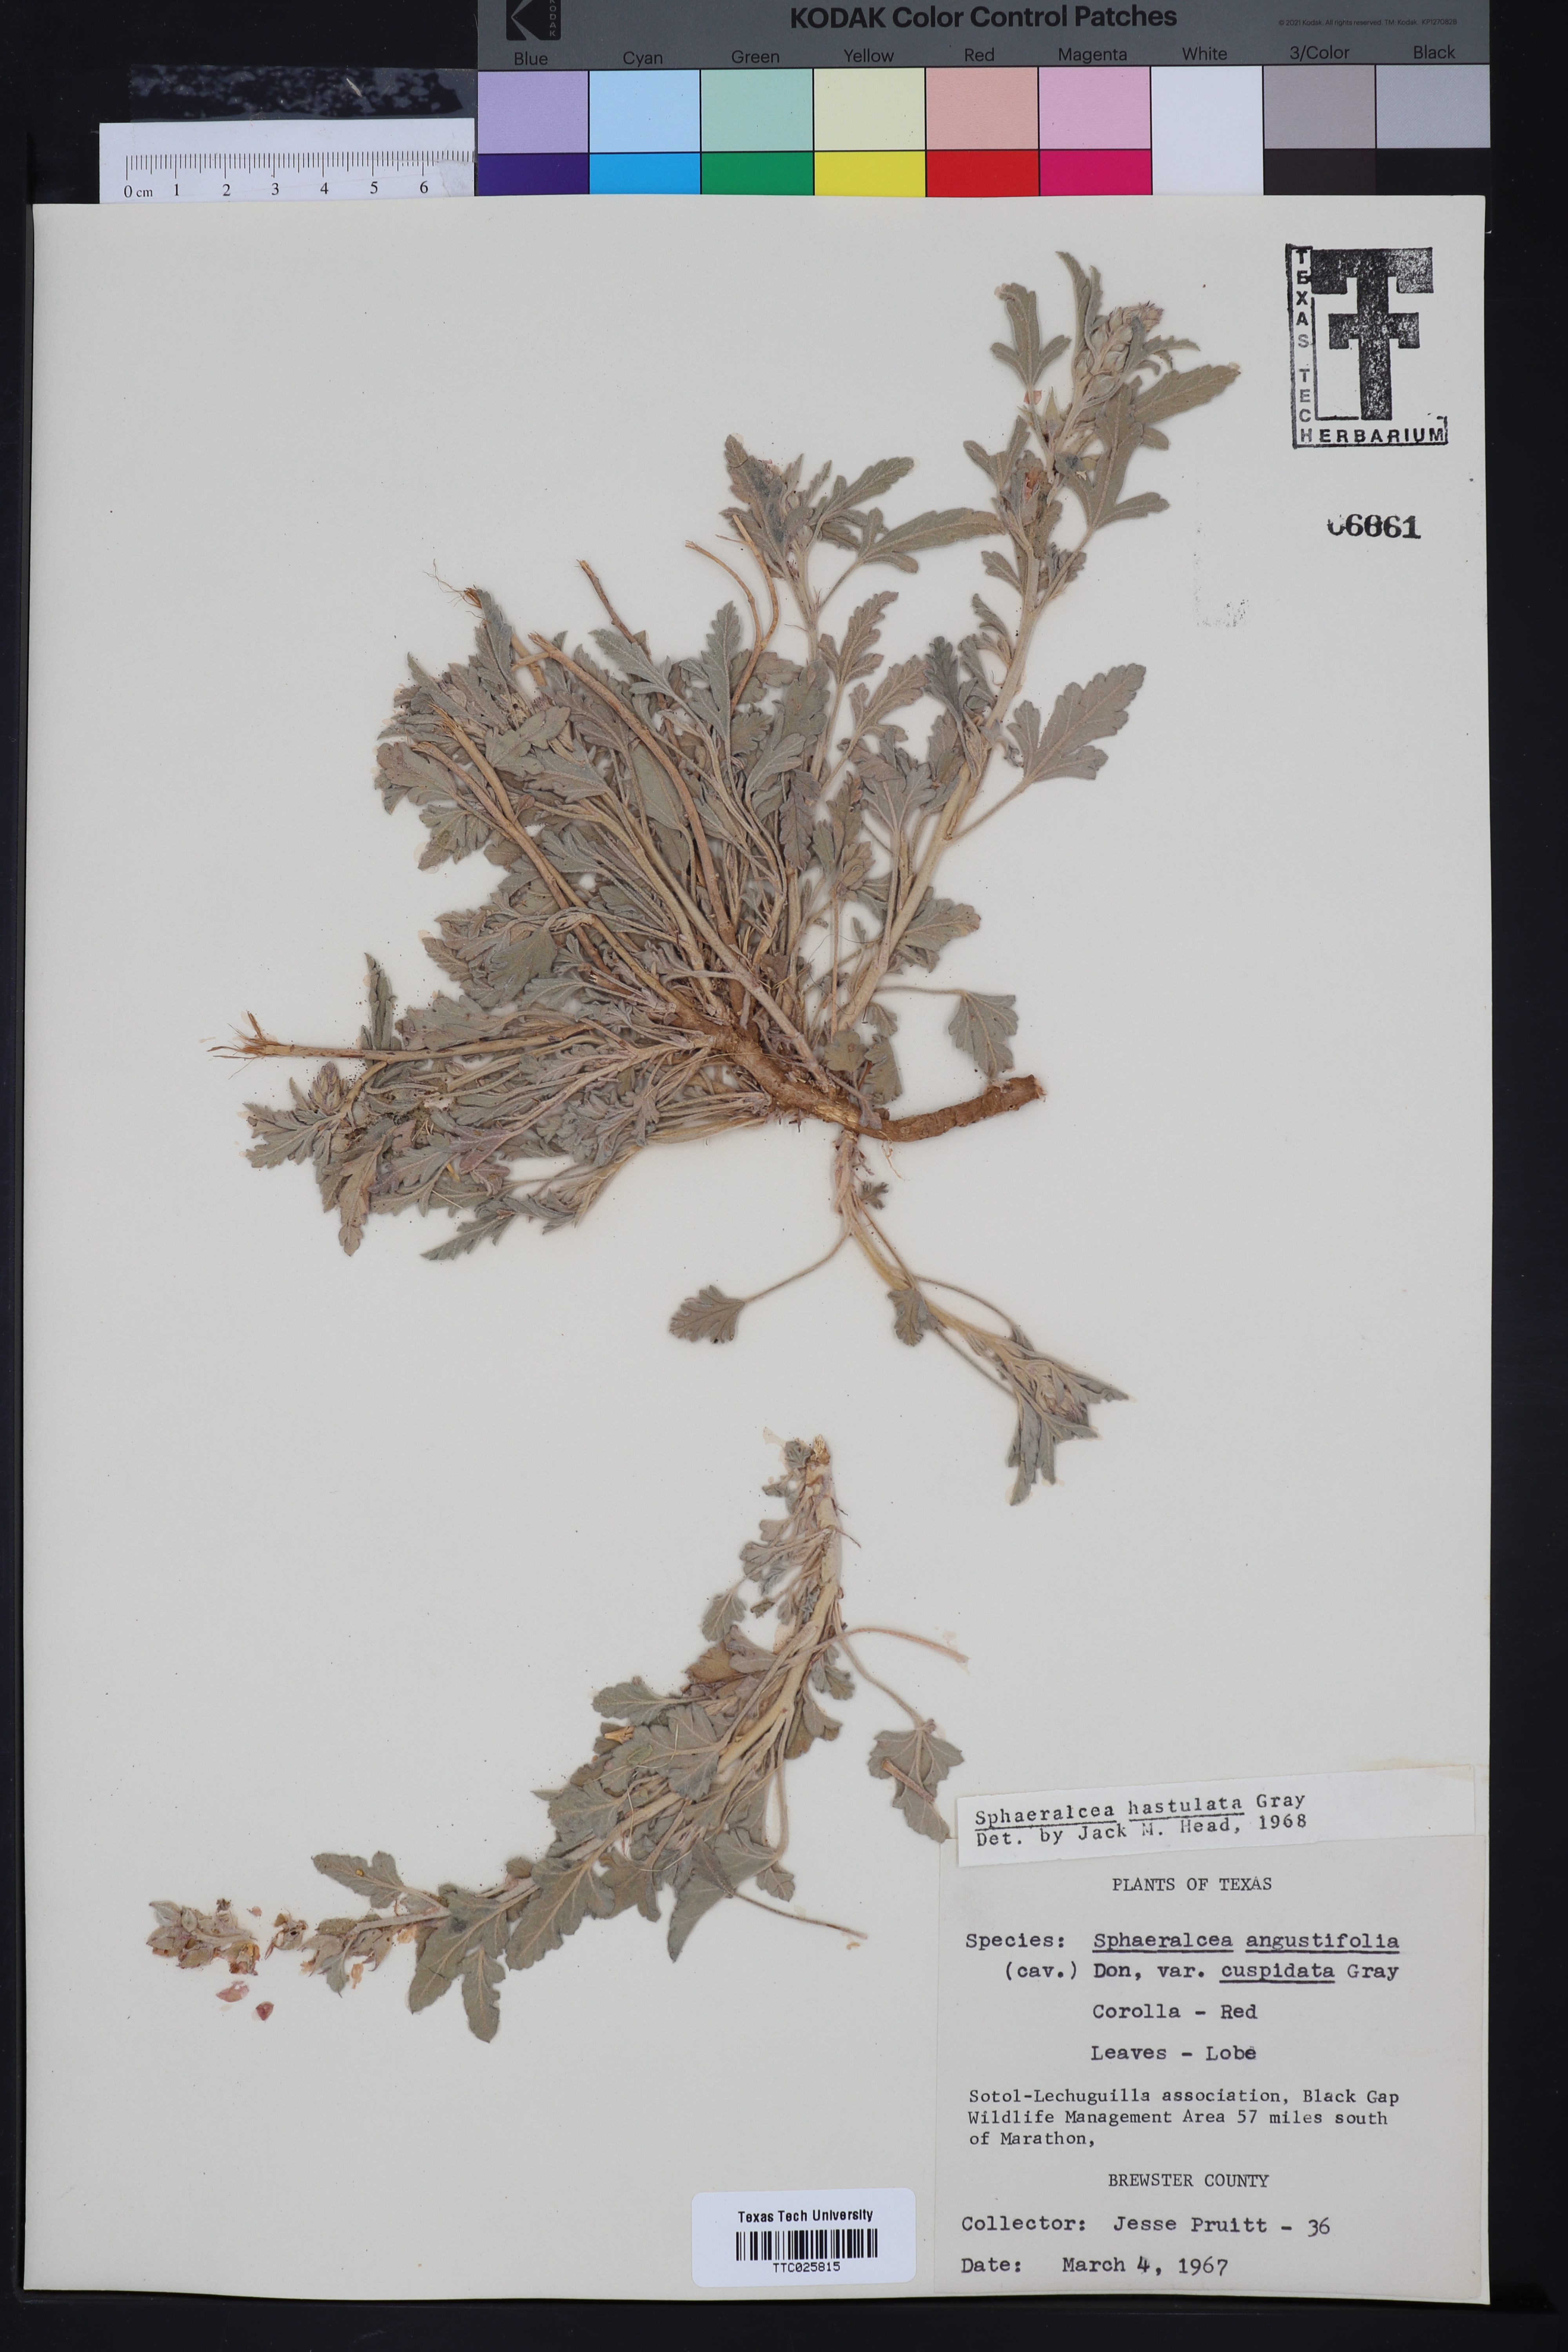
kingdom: Plantae
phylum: Tracheophyta
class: Magnoliopsida
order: Malvales
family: Malvaceae
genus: Sphaeralcea
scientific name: Sphaeralcea hastulata
